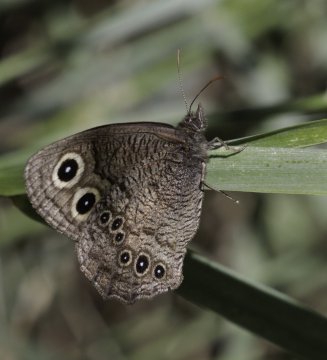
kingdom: Animalia
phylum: Arthropoda
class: Insecta
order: Lepidoptera
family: Nymphalidae
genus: Cercyonis
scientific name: Cercyonis pegala
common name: Common Wood-Nymph
